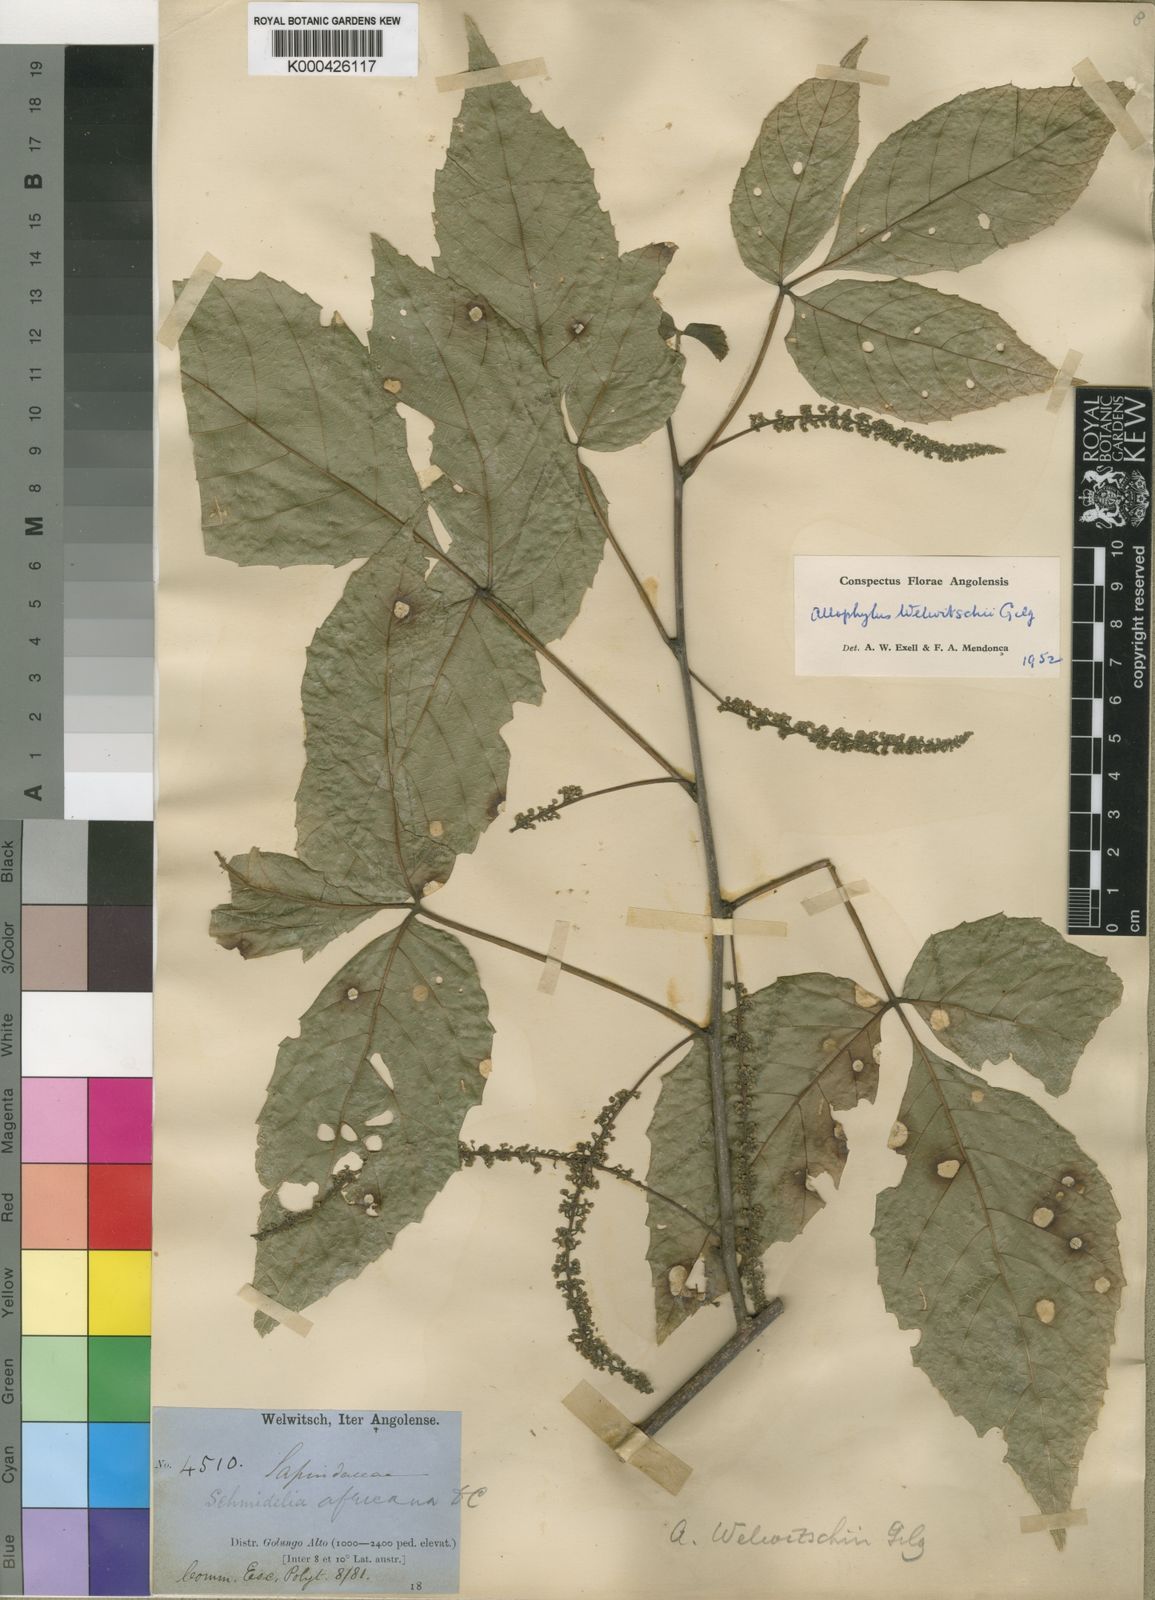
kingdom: Plantae
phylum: Tracheophyta
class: Magnoliopsida
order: Sapindales
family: Sapindaceae
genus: Allophylus
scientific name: Allophylus welwitschii
